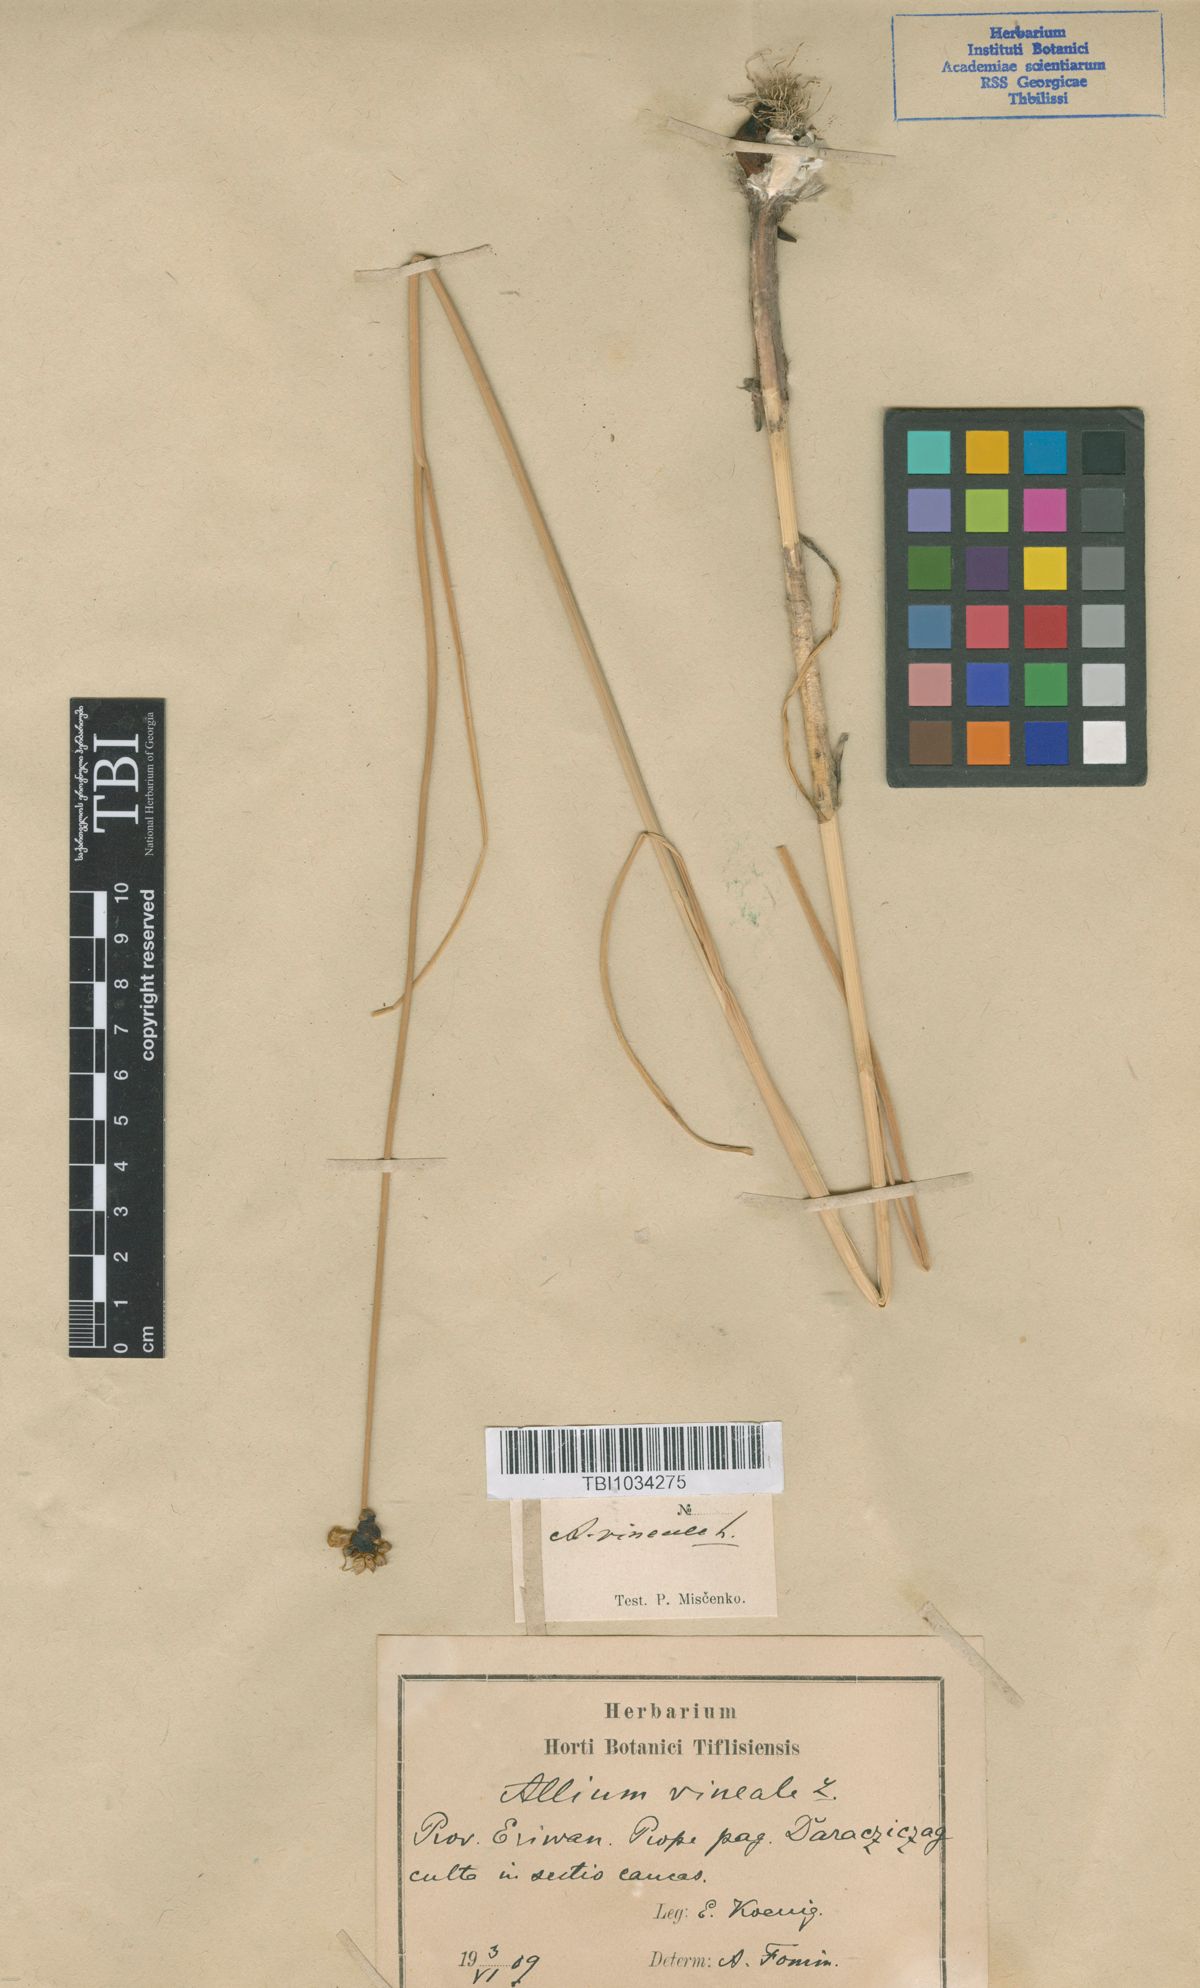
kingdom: Plantae
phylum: Tracheophyta
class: Liliopsida
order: Asparagales
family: Amaryllidaceae
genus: Allium
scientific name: Allium vineale
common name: Crow garlic
